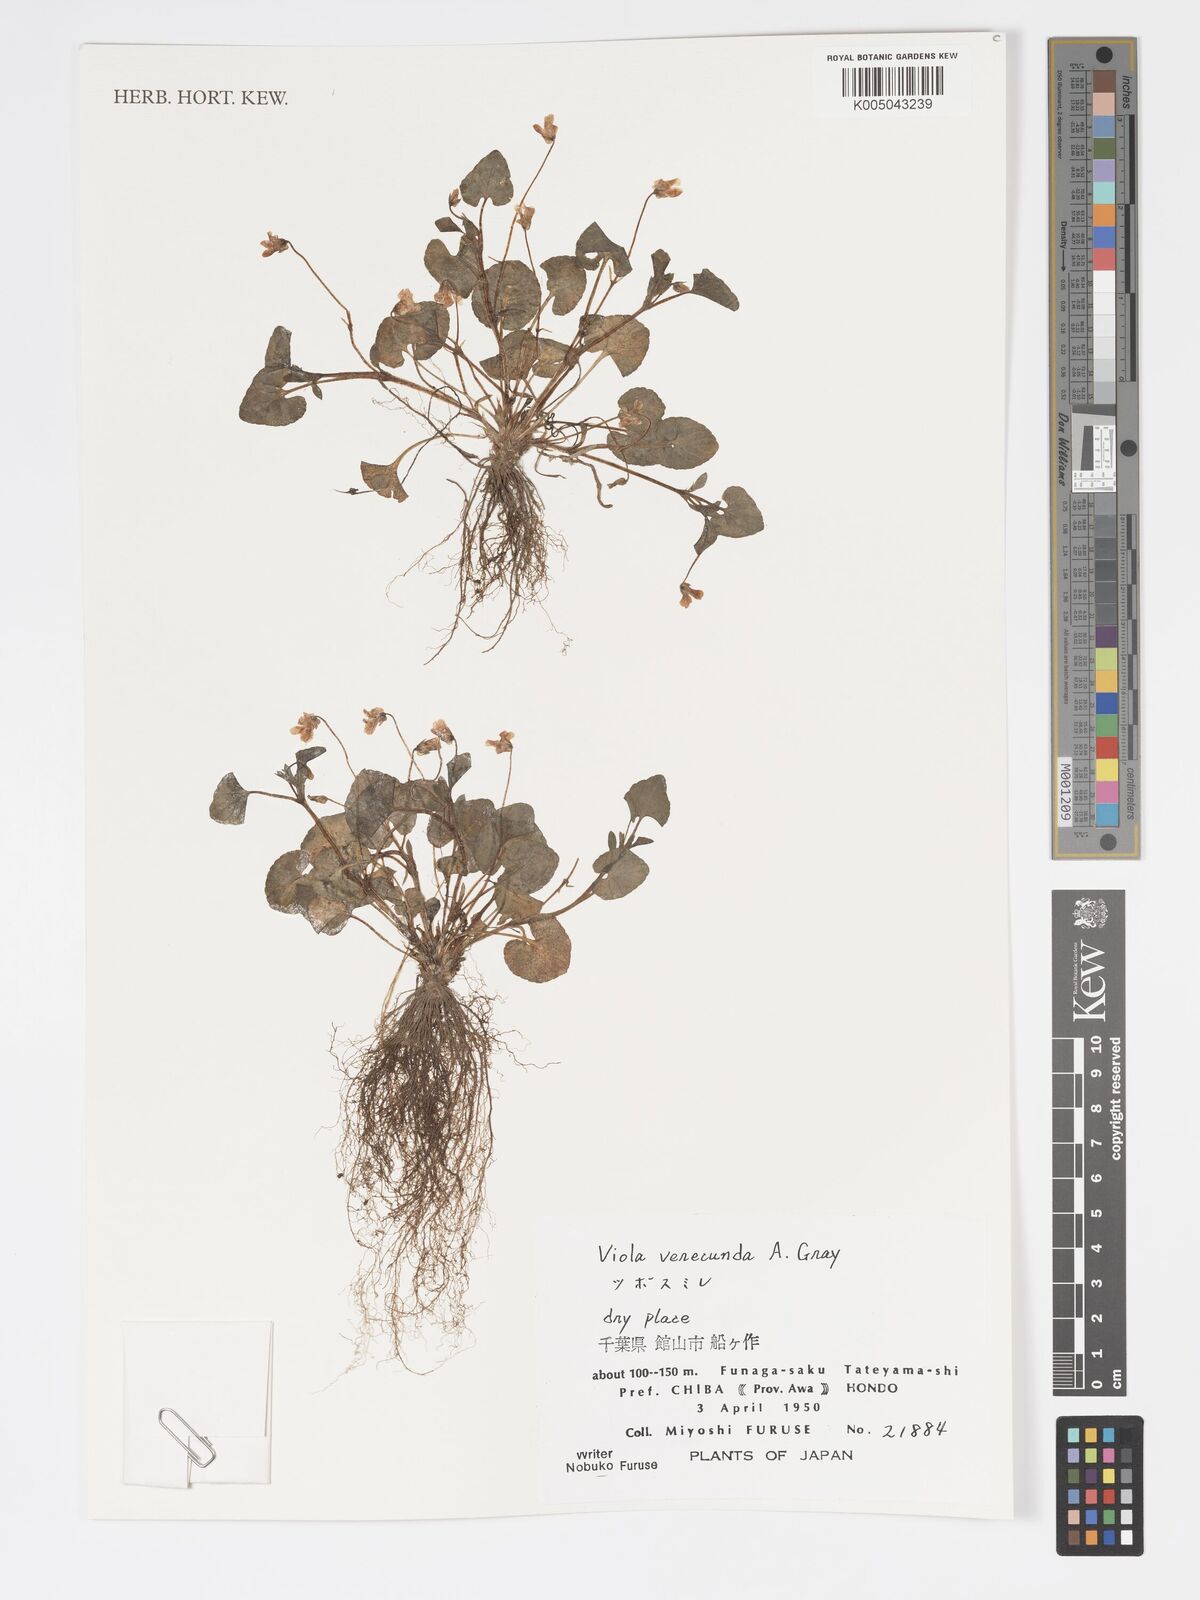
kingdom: Plantae
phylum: Tracheophyta
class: Magnoliopsida
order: Malpighiales
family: Violaceae
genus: Viola
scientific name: Viola hamiltoniana
